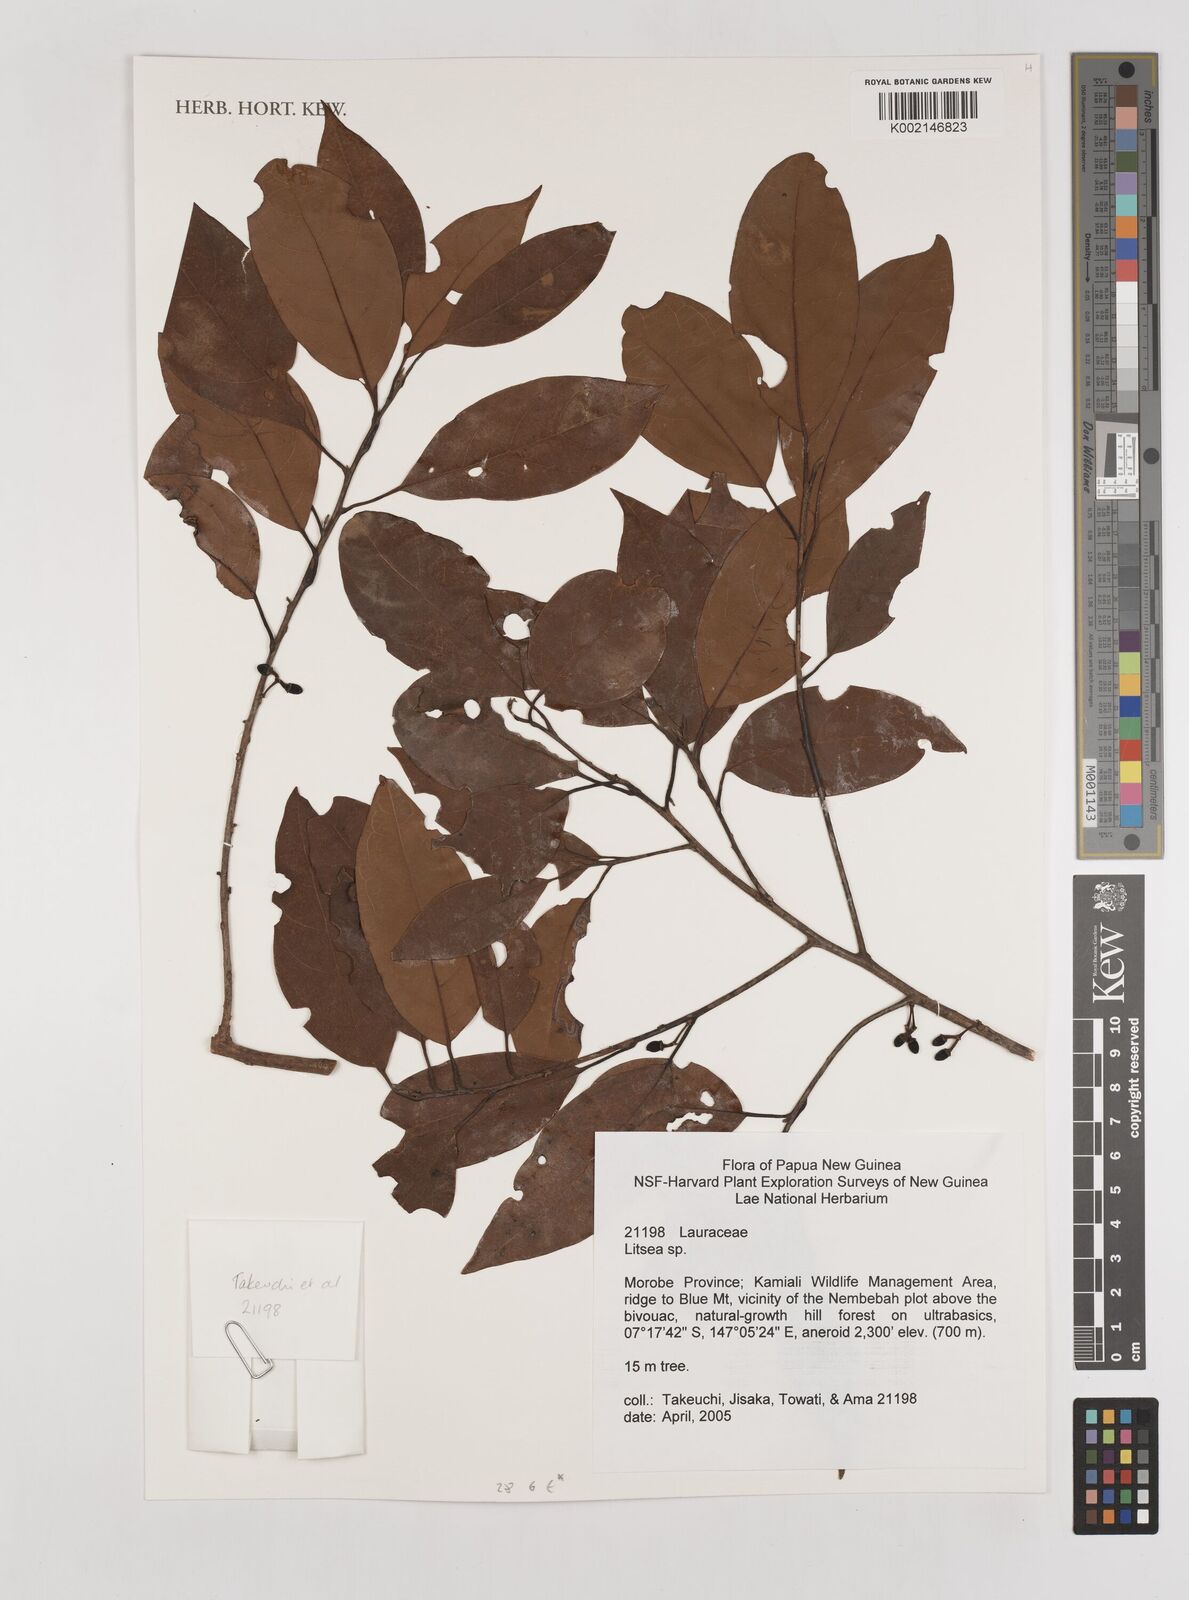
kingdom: Plantae
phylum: Tracheophyta
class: Magnoliopsida
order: Laurales
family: Lauraceae
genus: Litsea
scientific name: Litsea
